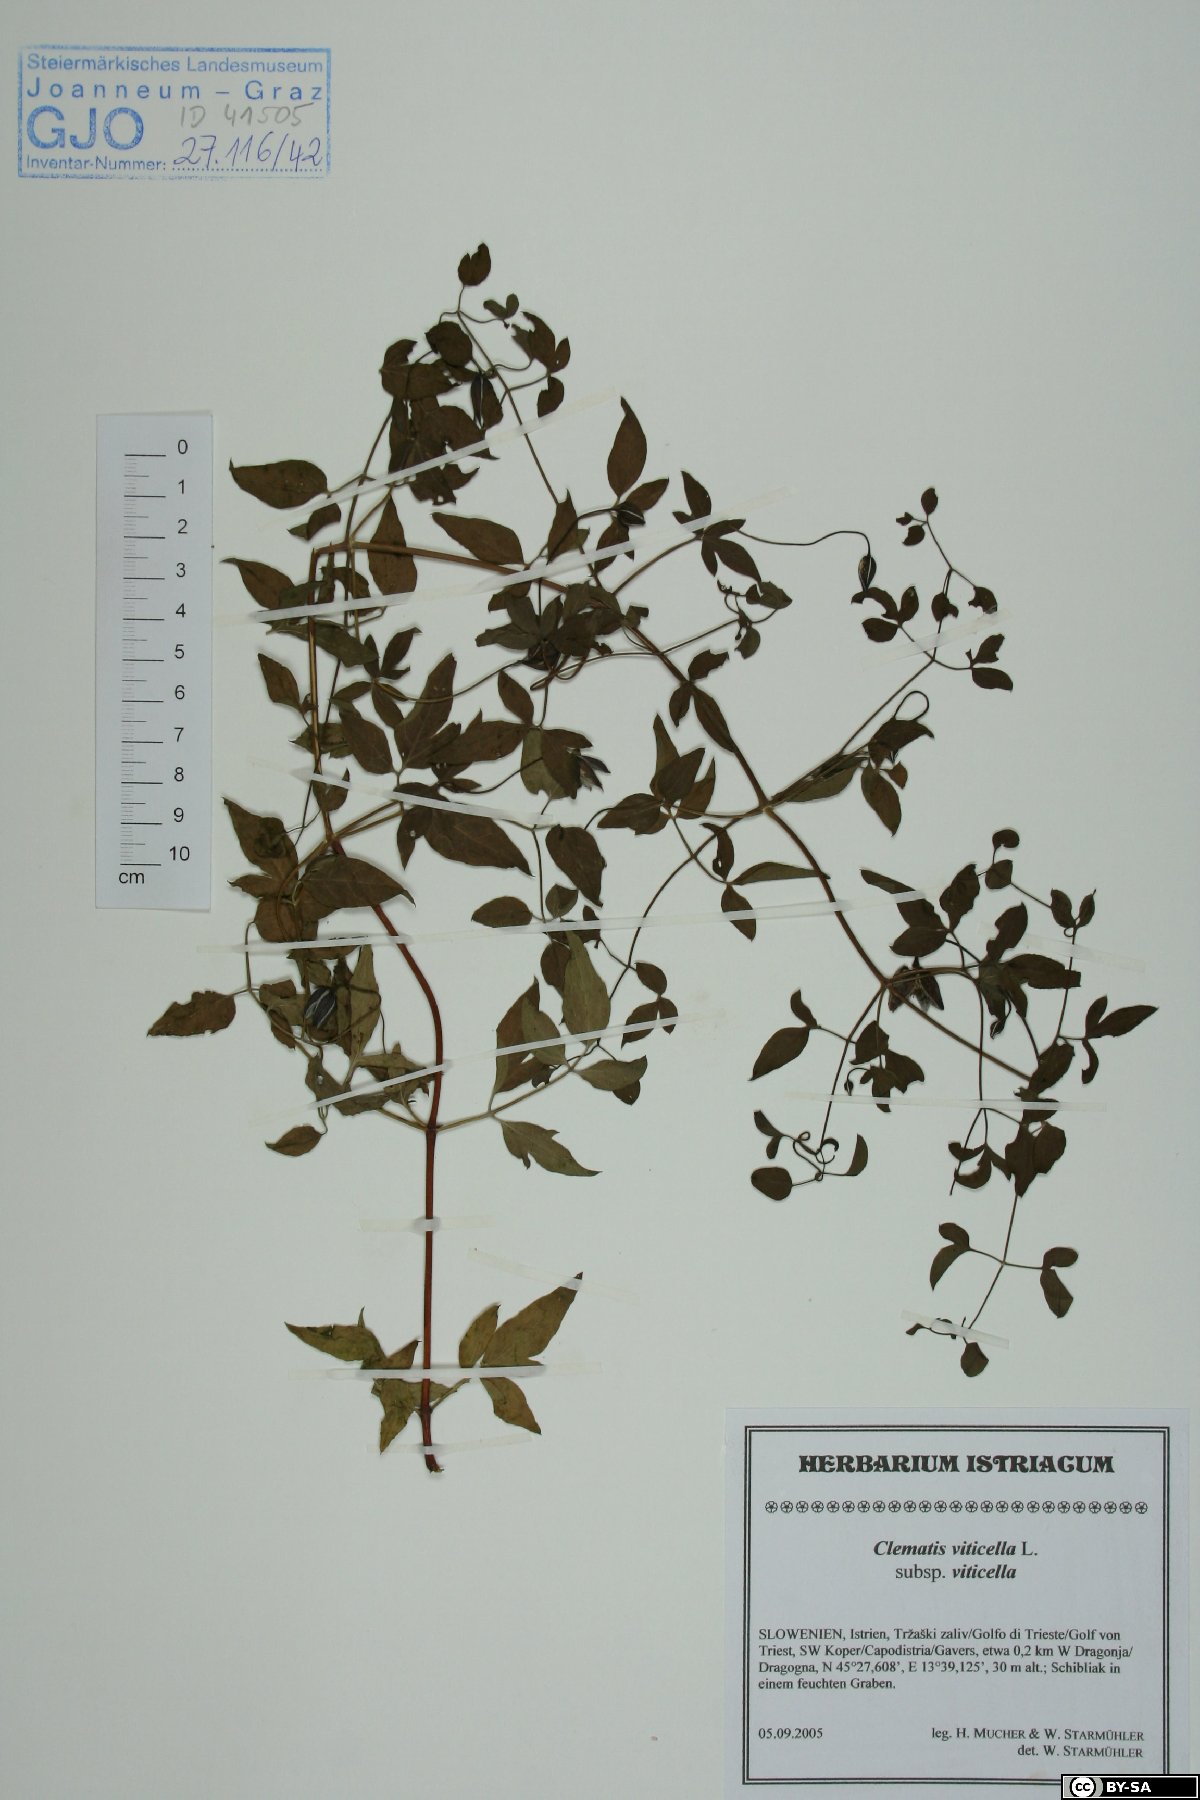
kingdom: Plantae
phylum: Tracheophyta
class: Magnoliopsida
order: Ranunculales
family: Ranunculaceae
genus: Clematis
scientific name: Clematis viticella
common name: Purple clematis
